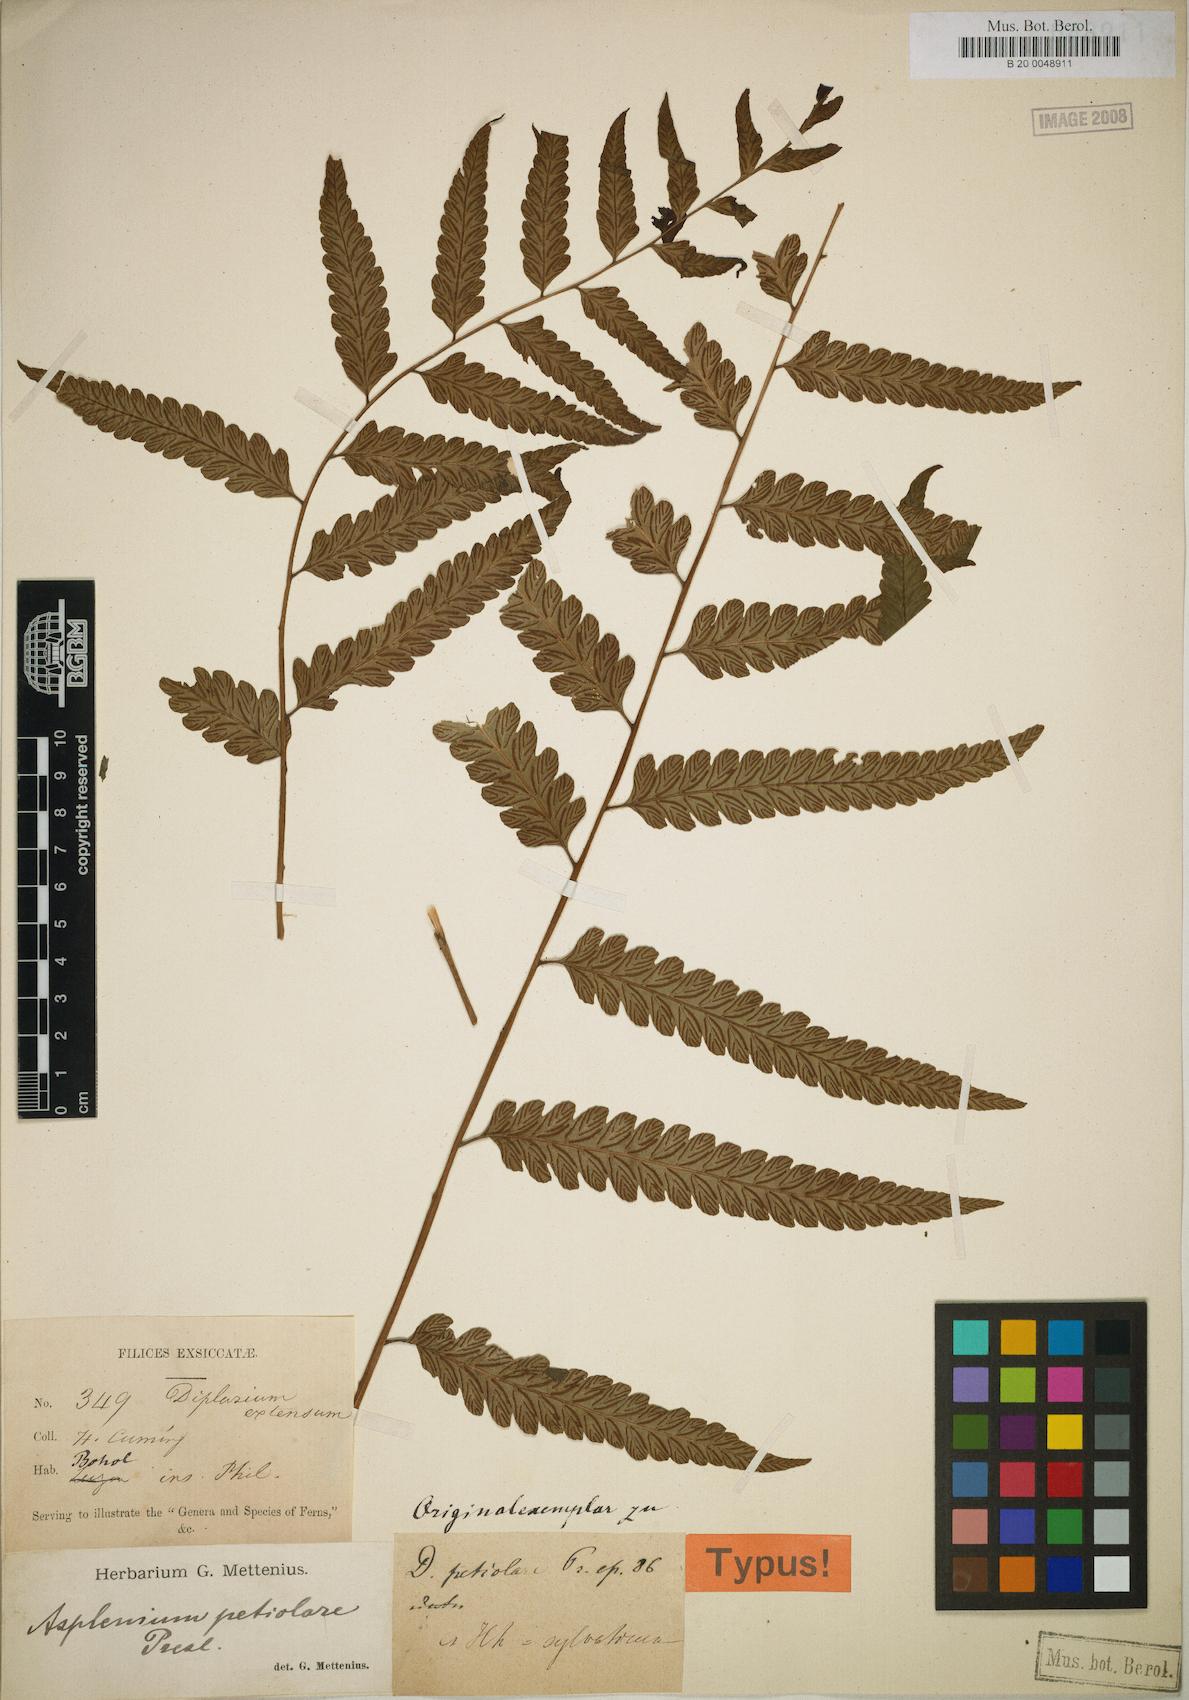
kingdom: Plantae
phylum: Tracheophyta
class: Polypodiopsida
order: Polypodiales
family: Athyriaceae
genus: Diplazium
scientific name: Diplazium petiolare
